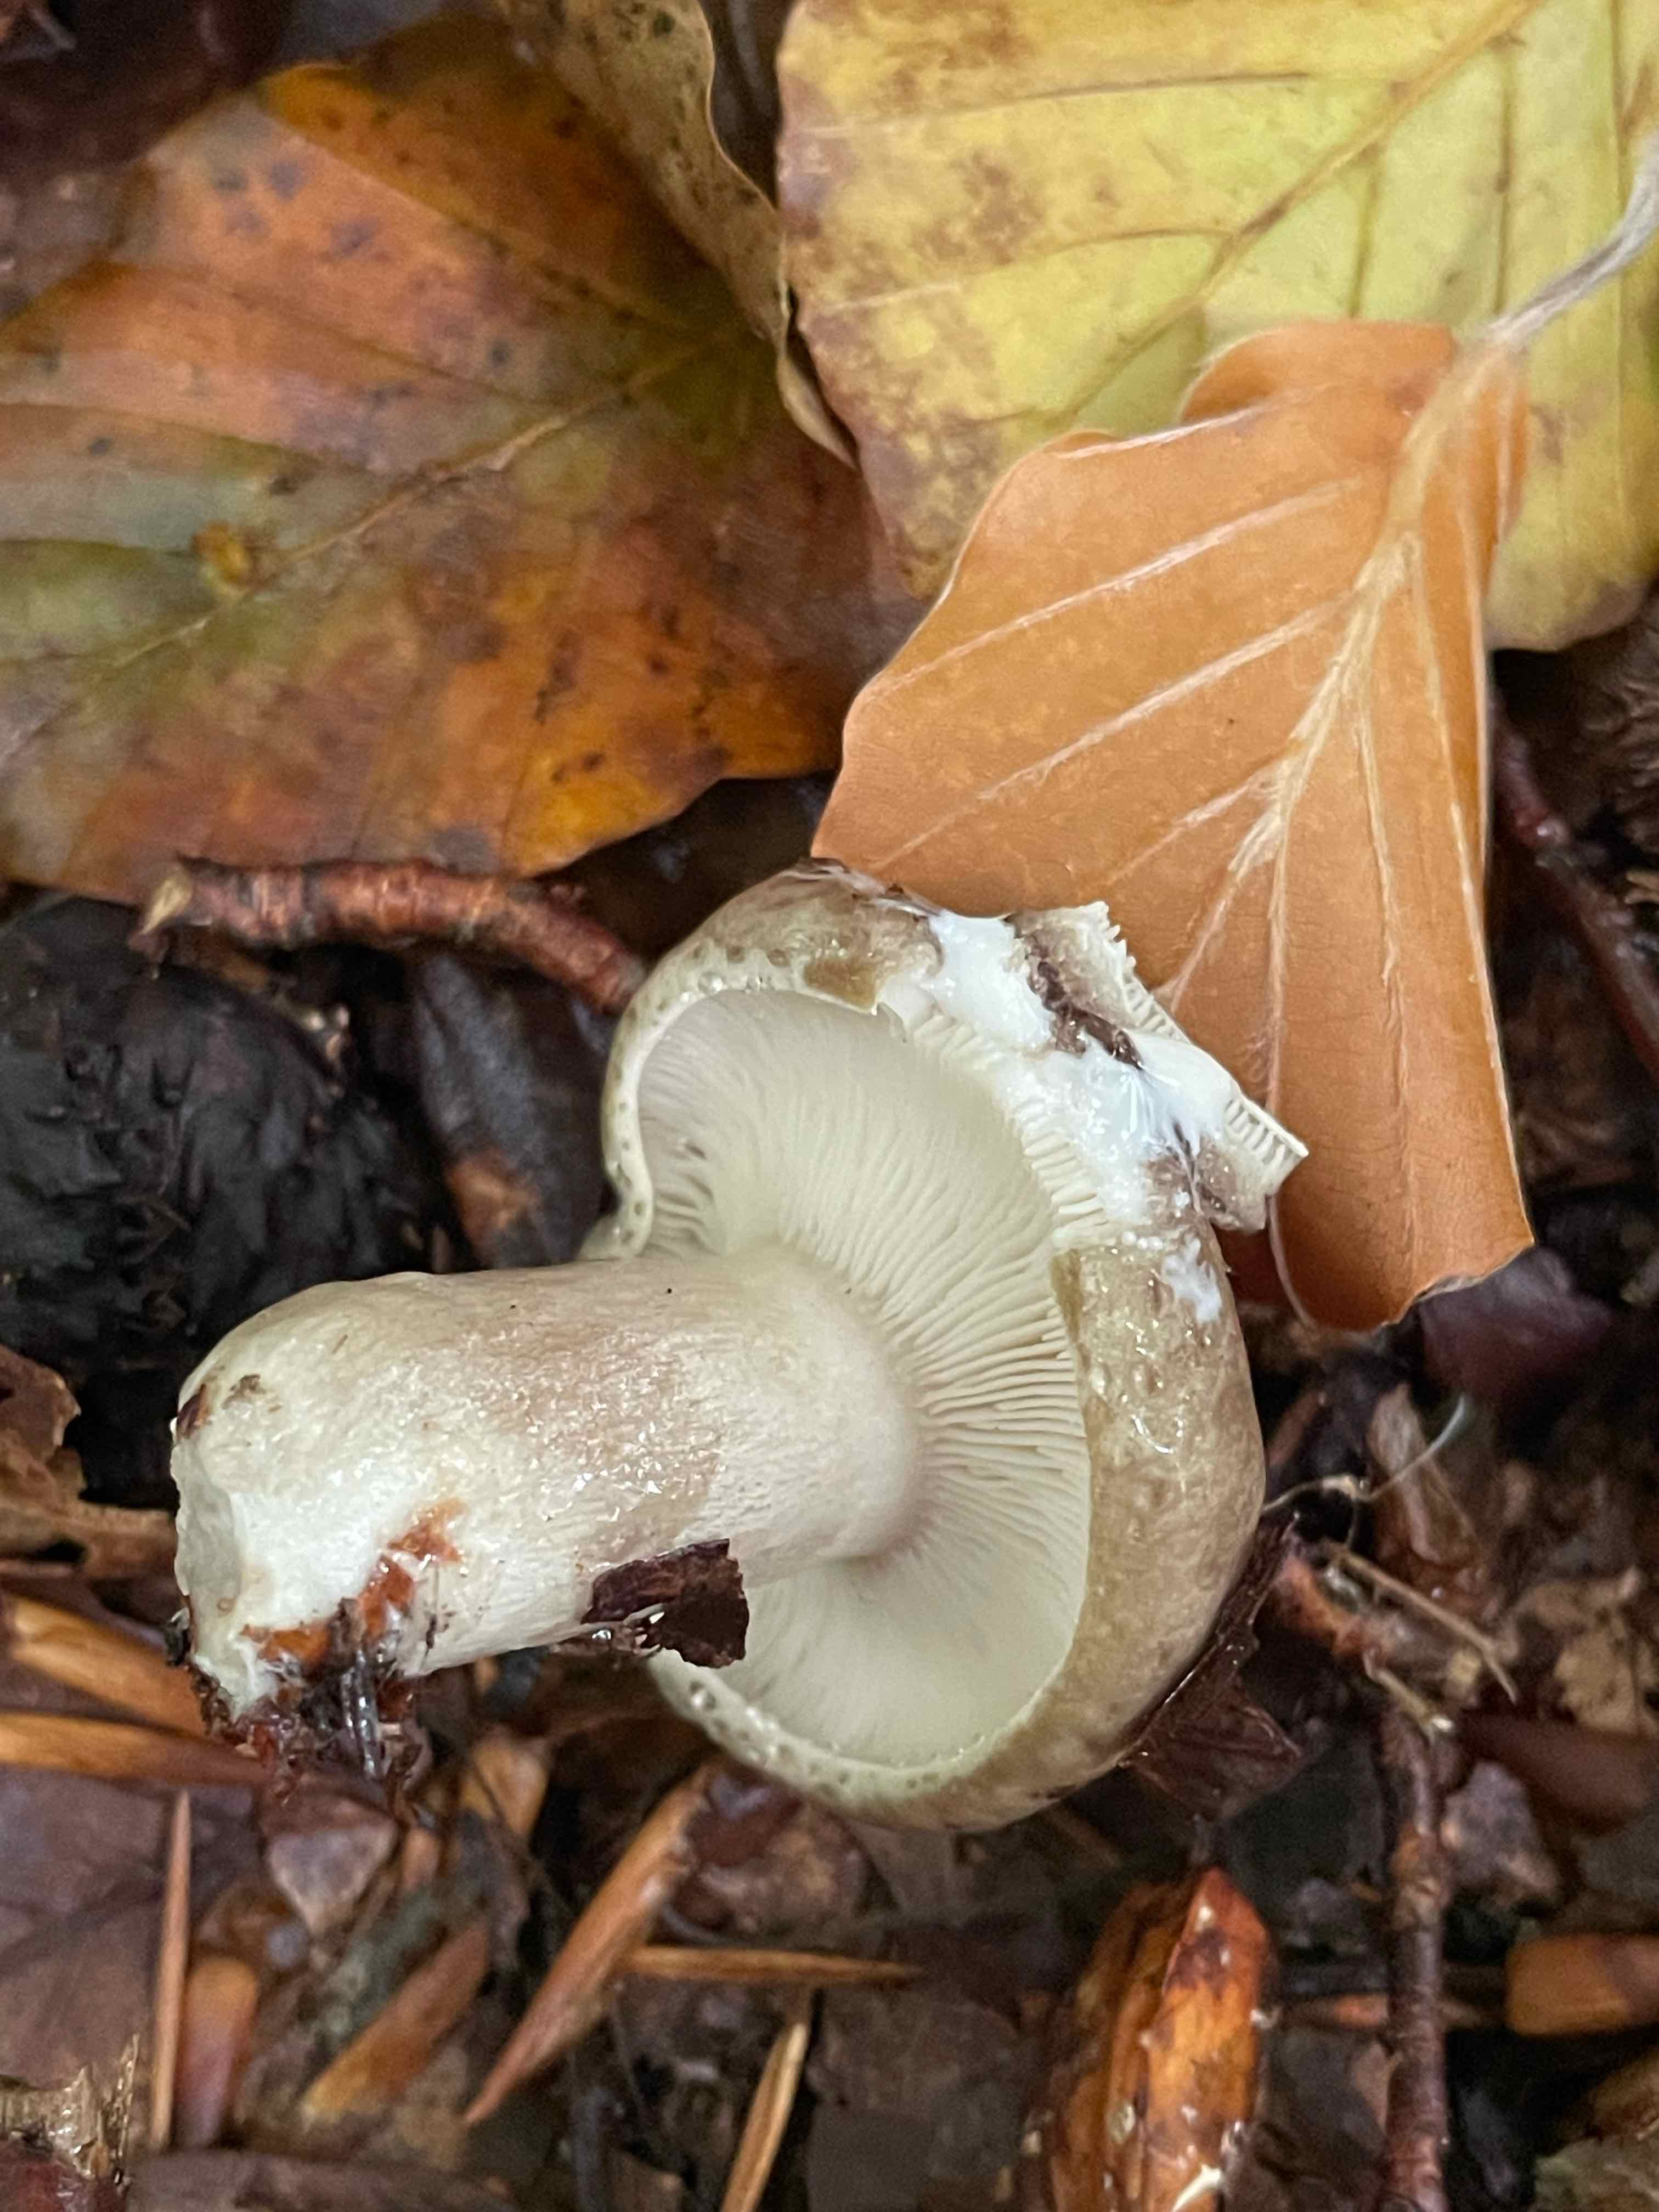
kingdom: Fungi
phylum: Basidiomycota
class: Agaricomycetes
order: Russulales
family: Russulaceae
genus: Lactarius
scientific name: Lactarius blennius
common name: dråbeplettet mælkehat
